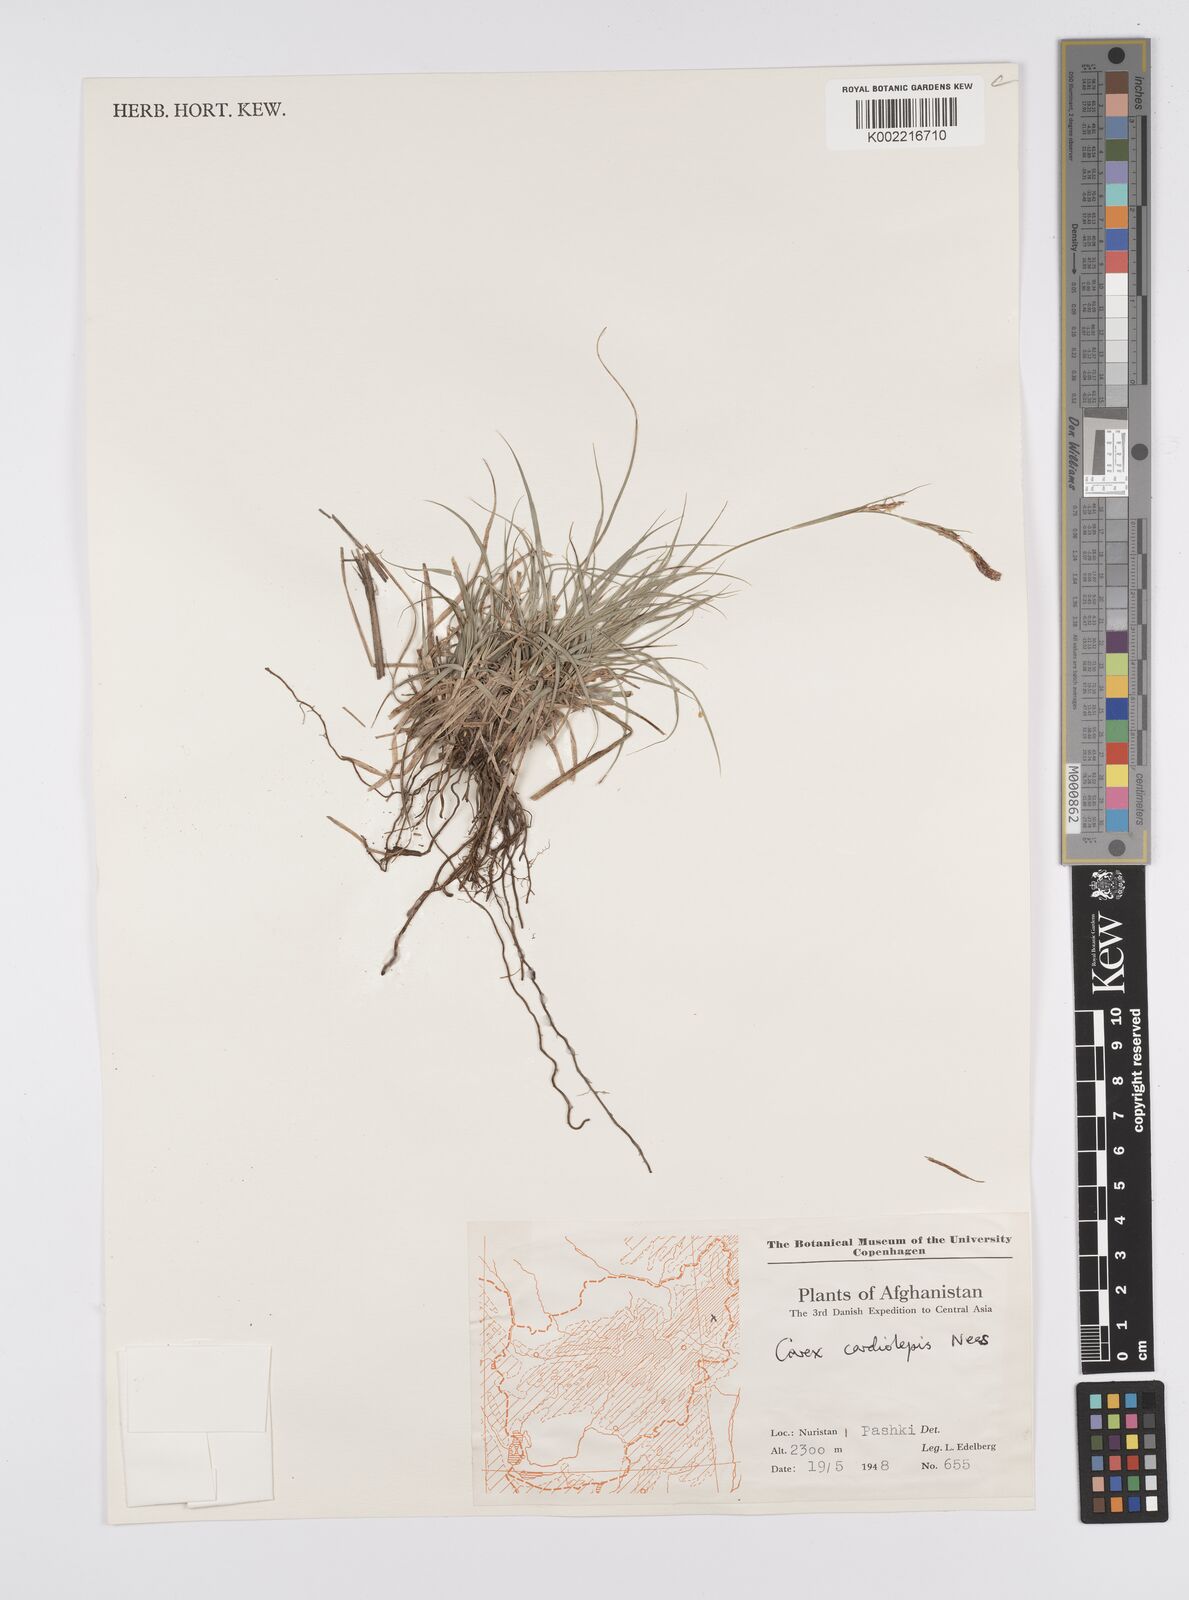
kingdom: Plantae
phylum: Tracheophyta
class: Liliopsida
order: Poales
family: Cyperaceae
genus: Carex
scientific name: Carex cardiolepis
